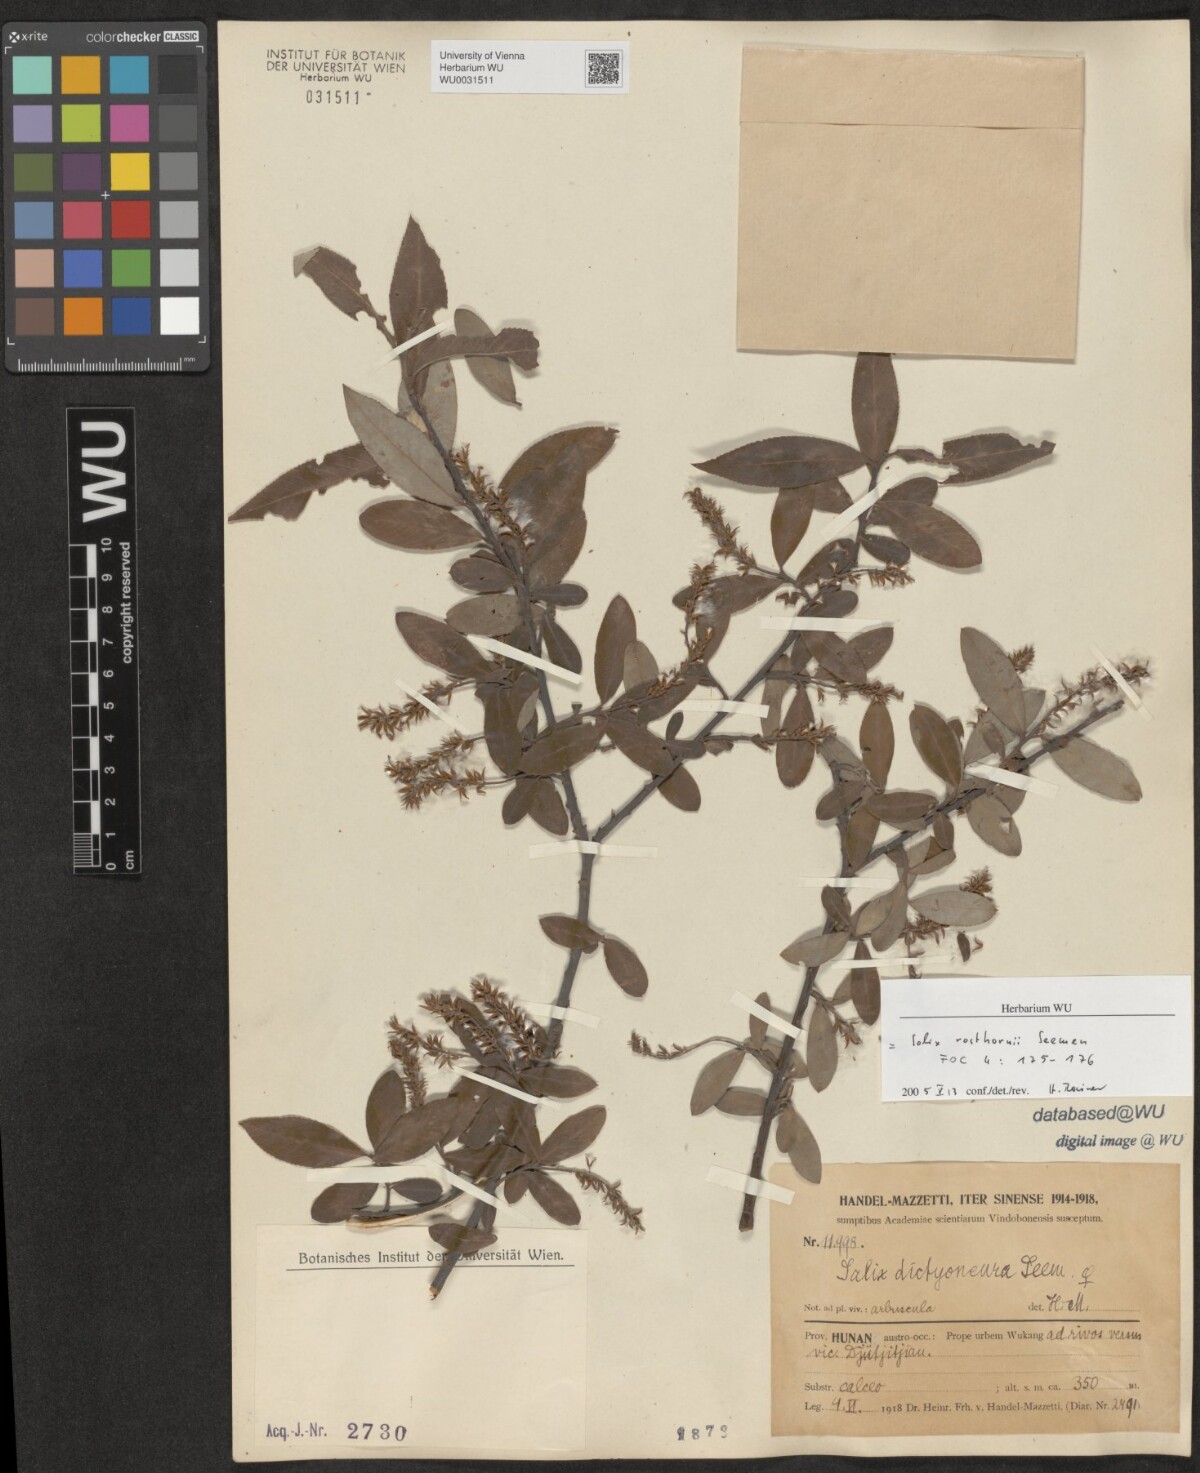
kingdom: Plantae
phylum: Tracheophyta
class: Magnoliopsida
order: Malpighiales
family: Salicaceae
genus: Salix
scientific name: Salix rosthornii
